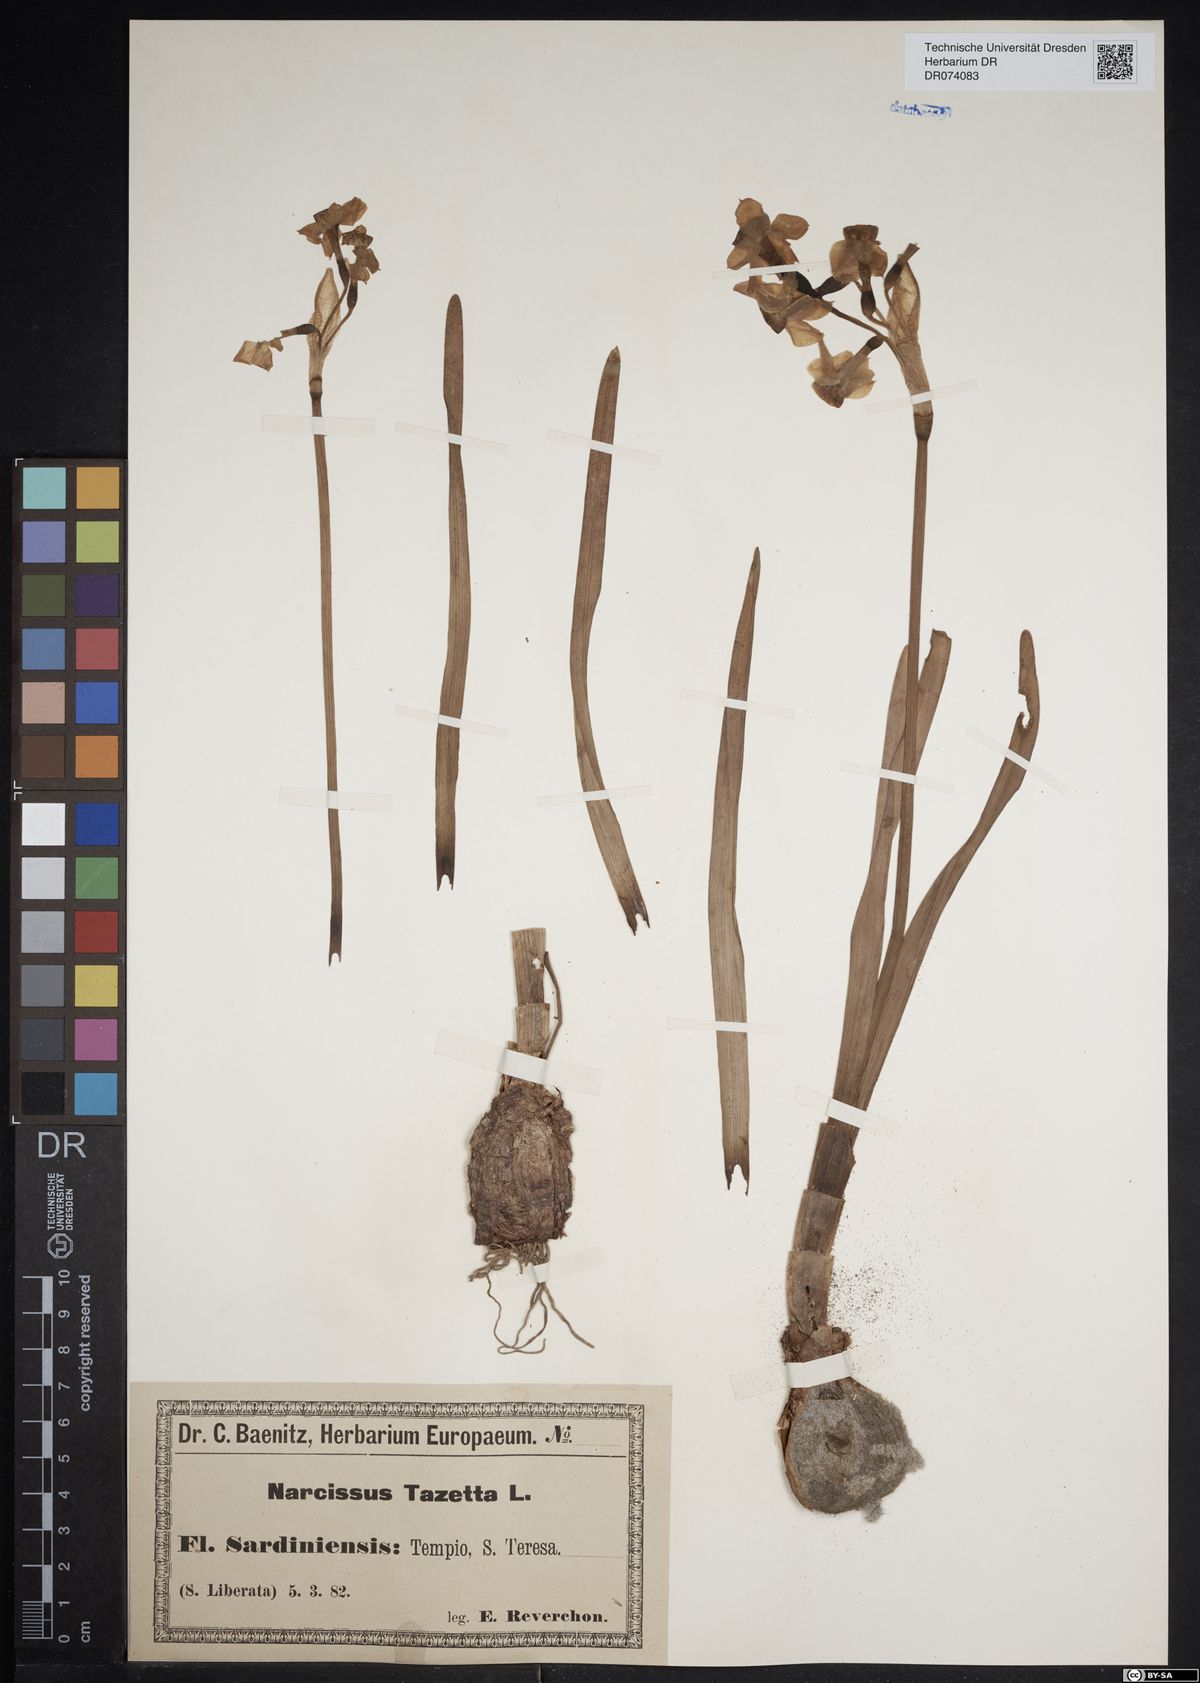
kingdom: Plantae
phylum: Tracheophyta
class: Liliopsida
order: Asparagales
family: Amaryllidaceae
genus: Narcissus
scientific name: Narcissus tazetta
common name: Bunch-flowered daffodil
